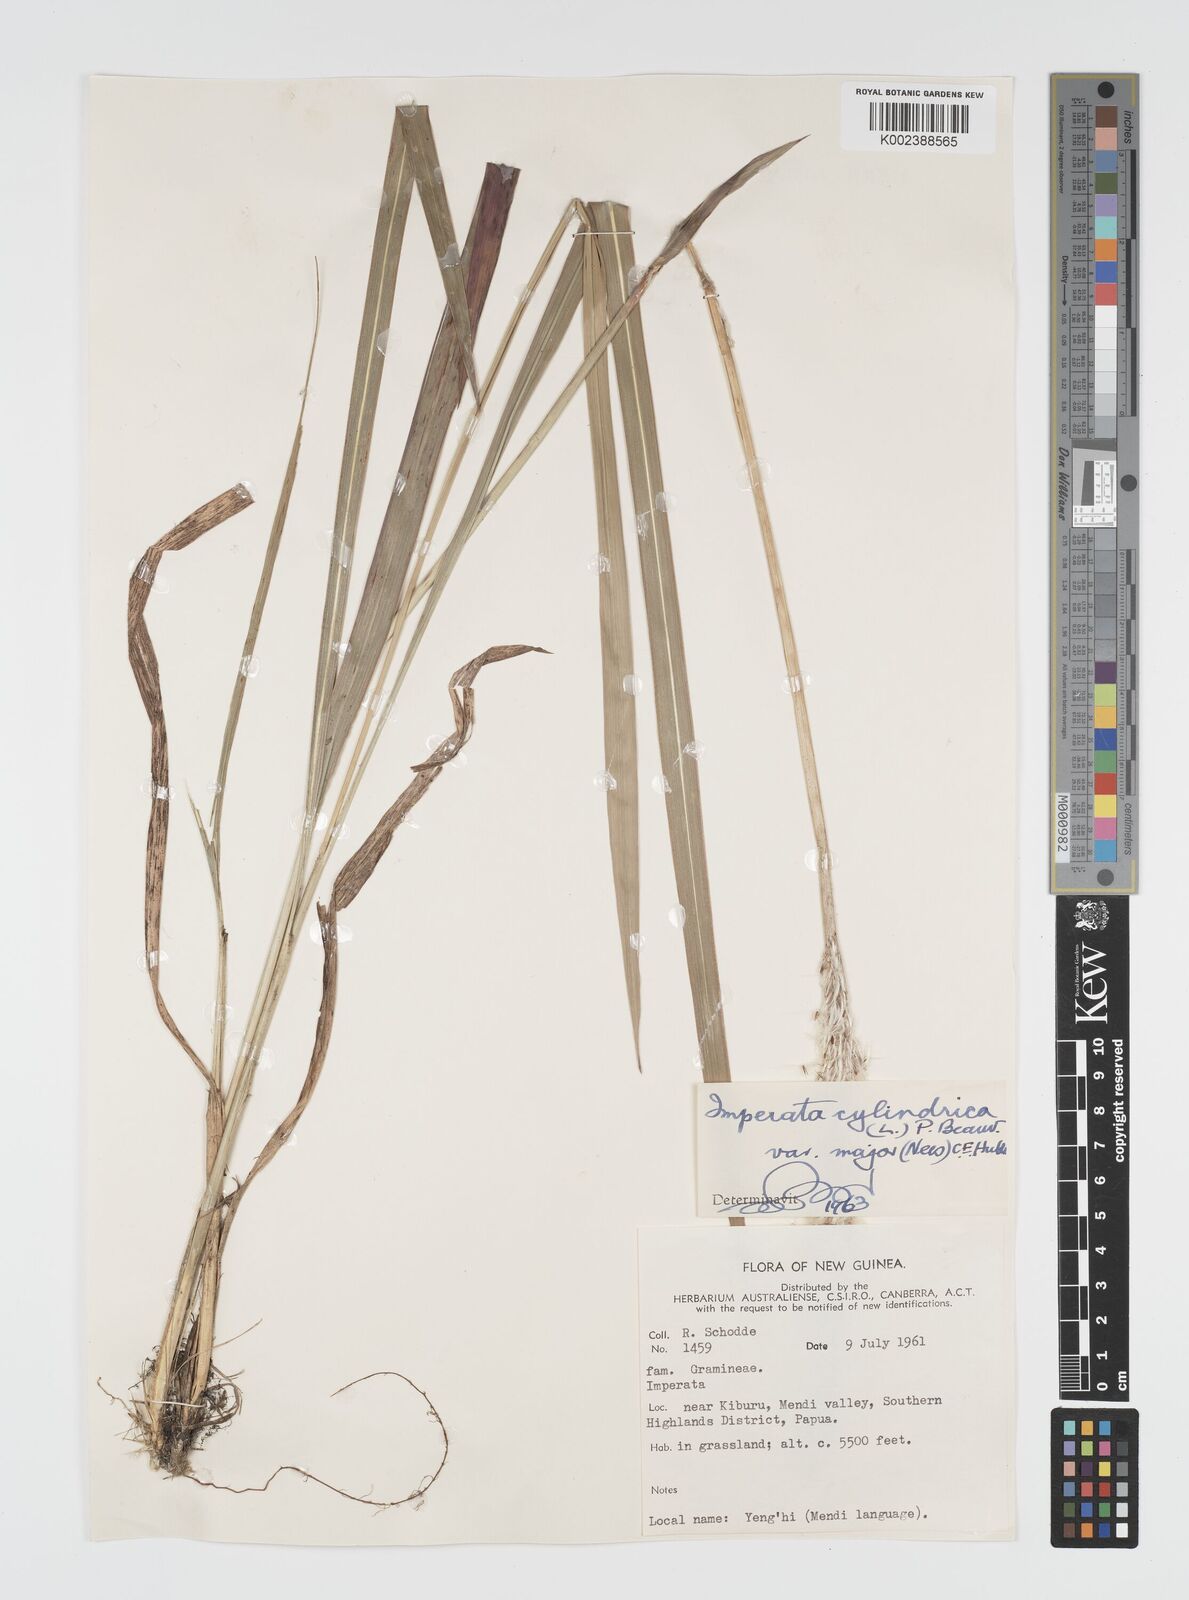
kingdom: Plantae
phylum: Tracheophyta
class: Liliopsida
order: Poales
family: Poaceae
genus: Imperata
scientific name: Imperata cylindrica
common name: Cogongrass
